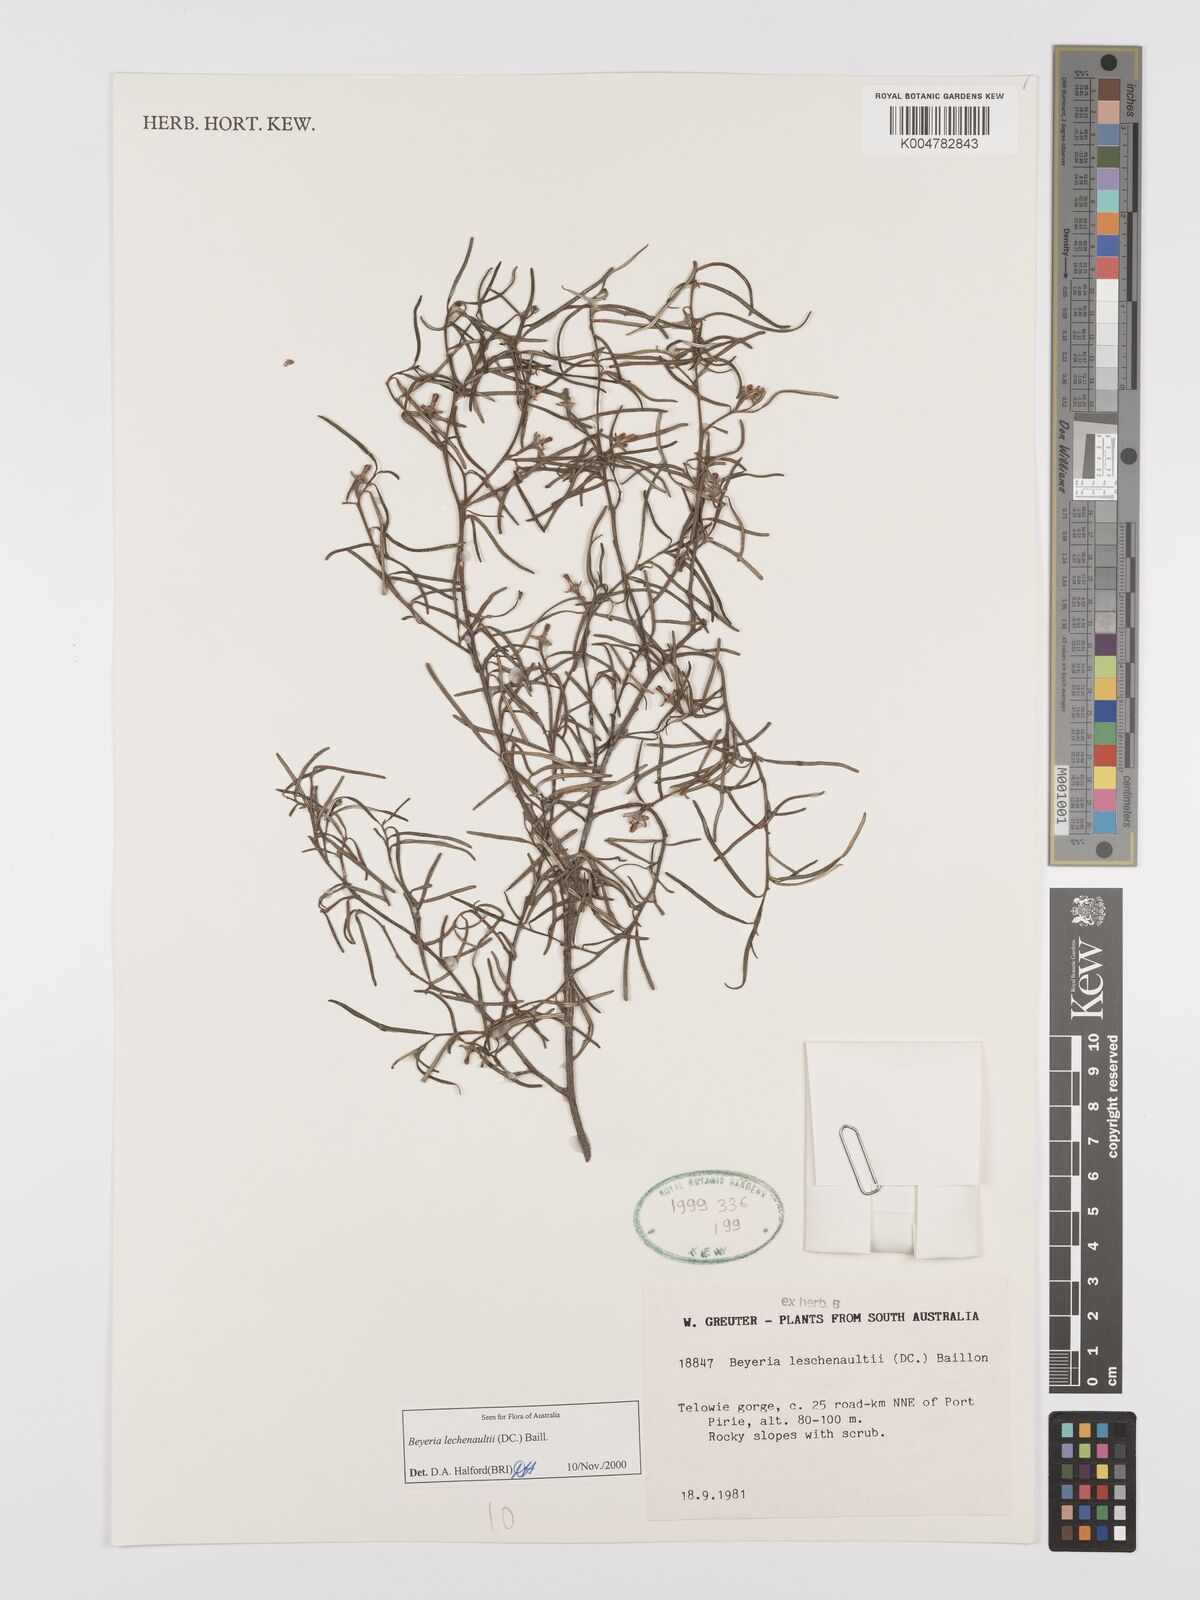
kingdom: Plantae
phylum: Tracheophyta
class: Magnoliopsida
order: Malpighiales
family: Euphorbiaceae
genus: Beyeria
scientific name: Beyeria lechenaultii
